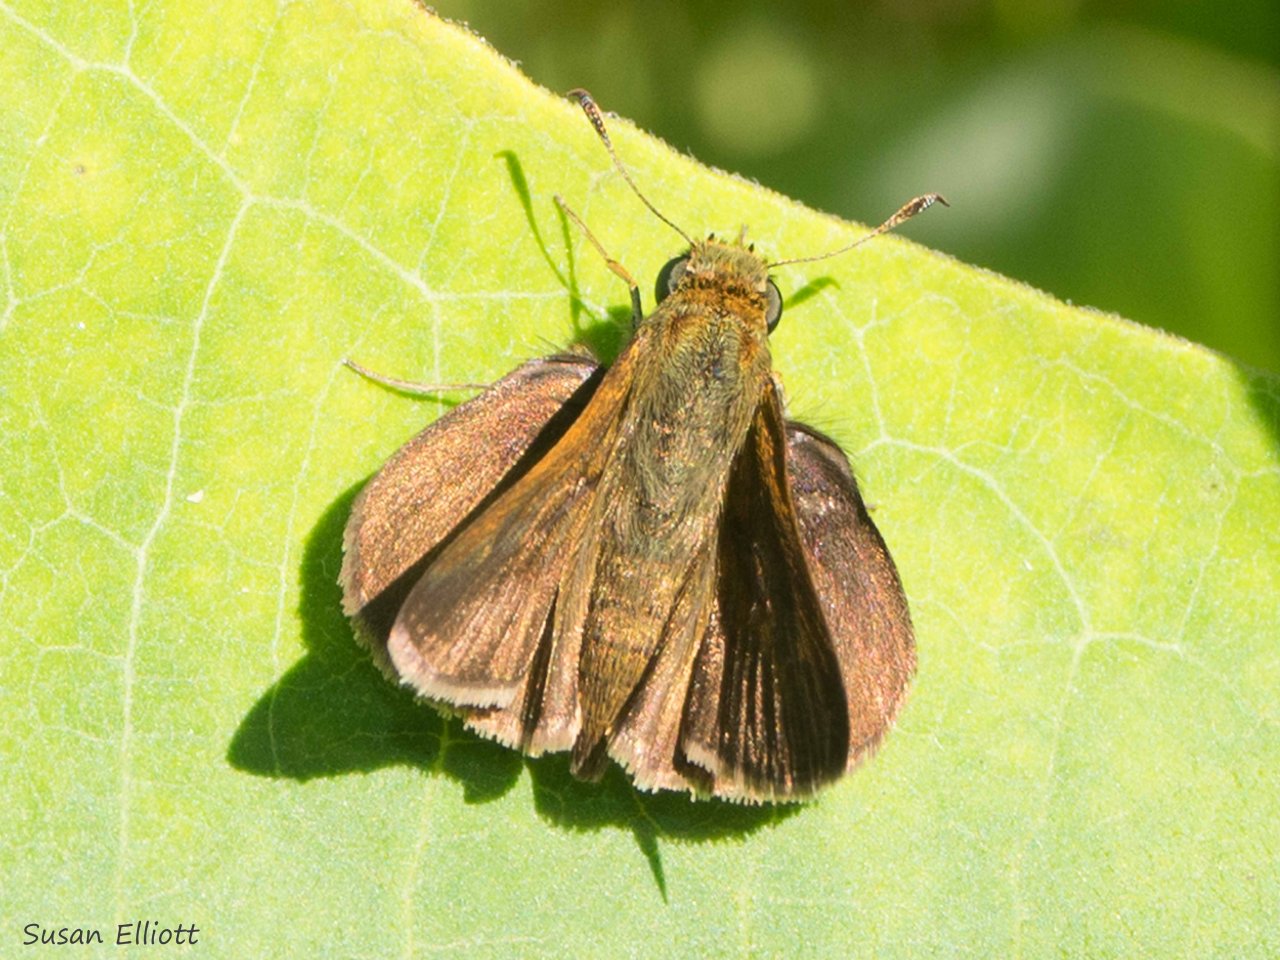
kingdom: Animalia
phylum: Arthropoda
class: Insecta
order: Lepidoptera
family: Hesperiidae
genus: Euphyes
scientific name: Euphyes vestris
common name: Dun Skipper
